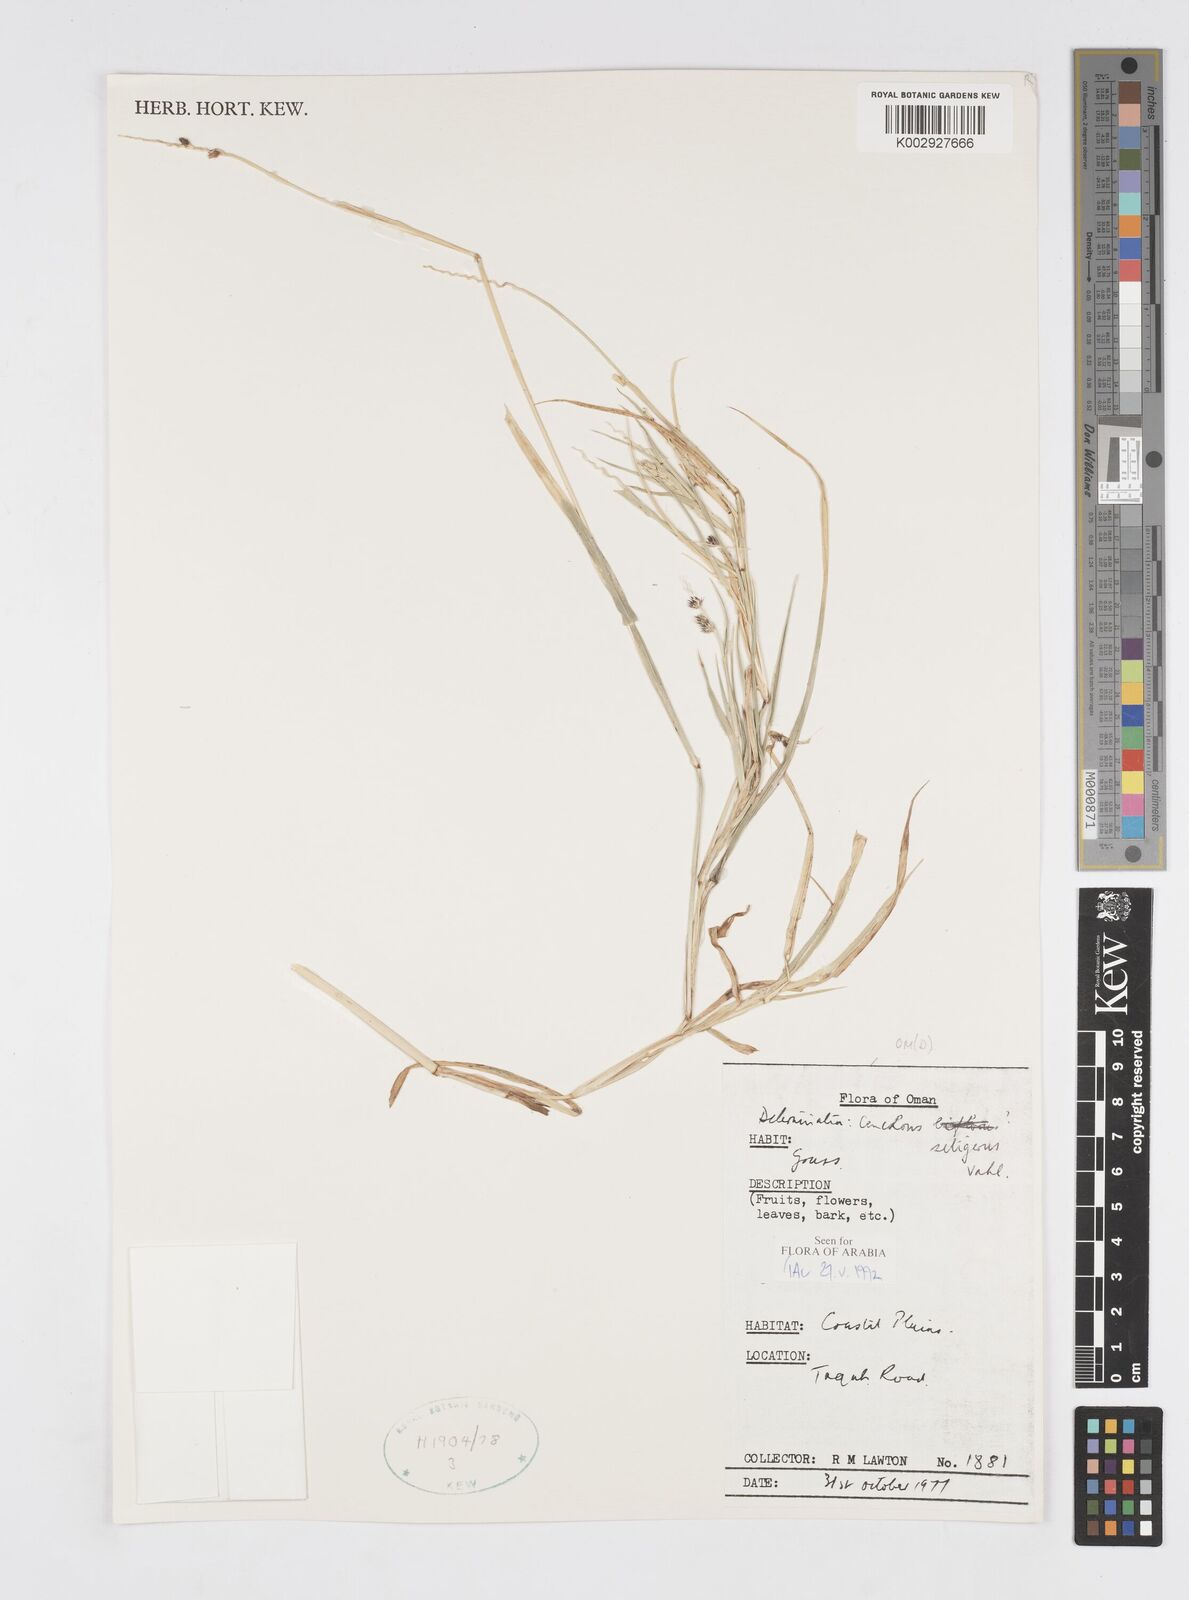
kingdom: Plantae
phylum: Tracheophyta
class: Liliopsida
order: Poales
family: Poaceae
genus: Cenchrus
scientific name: Cenchrus setigerus
